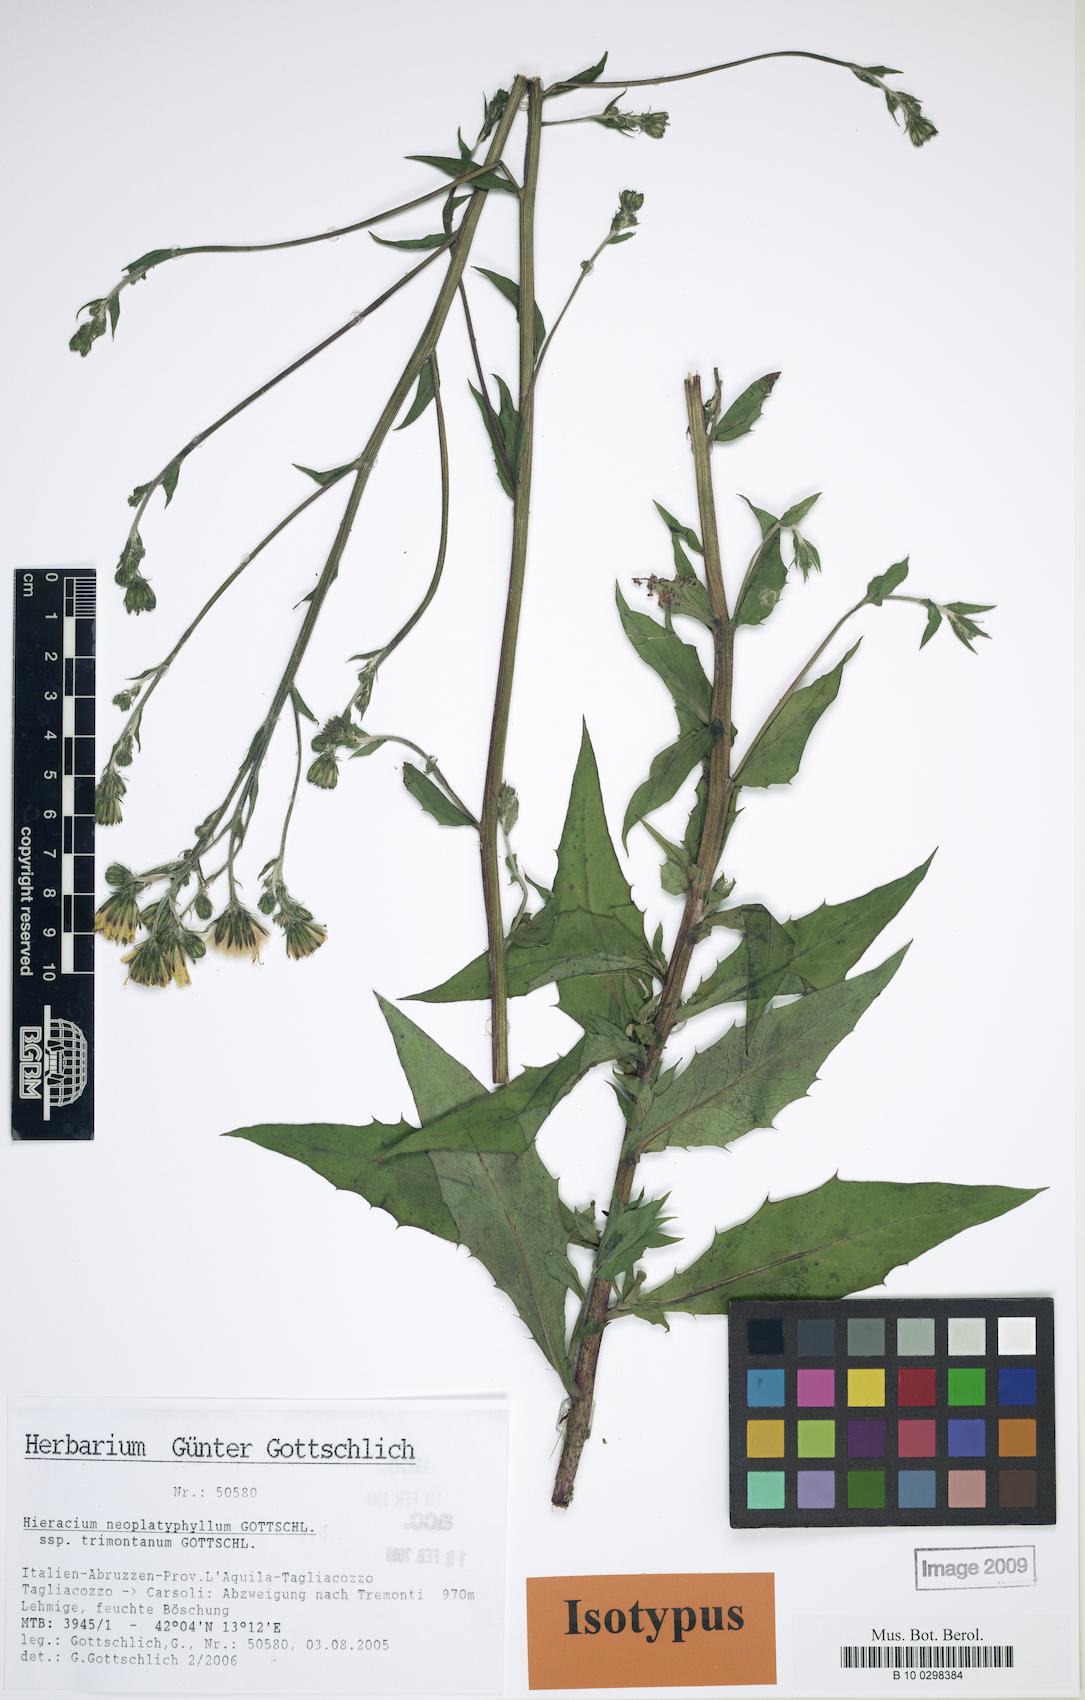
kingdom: Plantae
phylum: Tracheophyta
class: Magnoliopsida
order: Asterales
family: Asteraceae
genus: Hieracium
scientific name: Hieracium neoplatyphyllum
